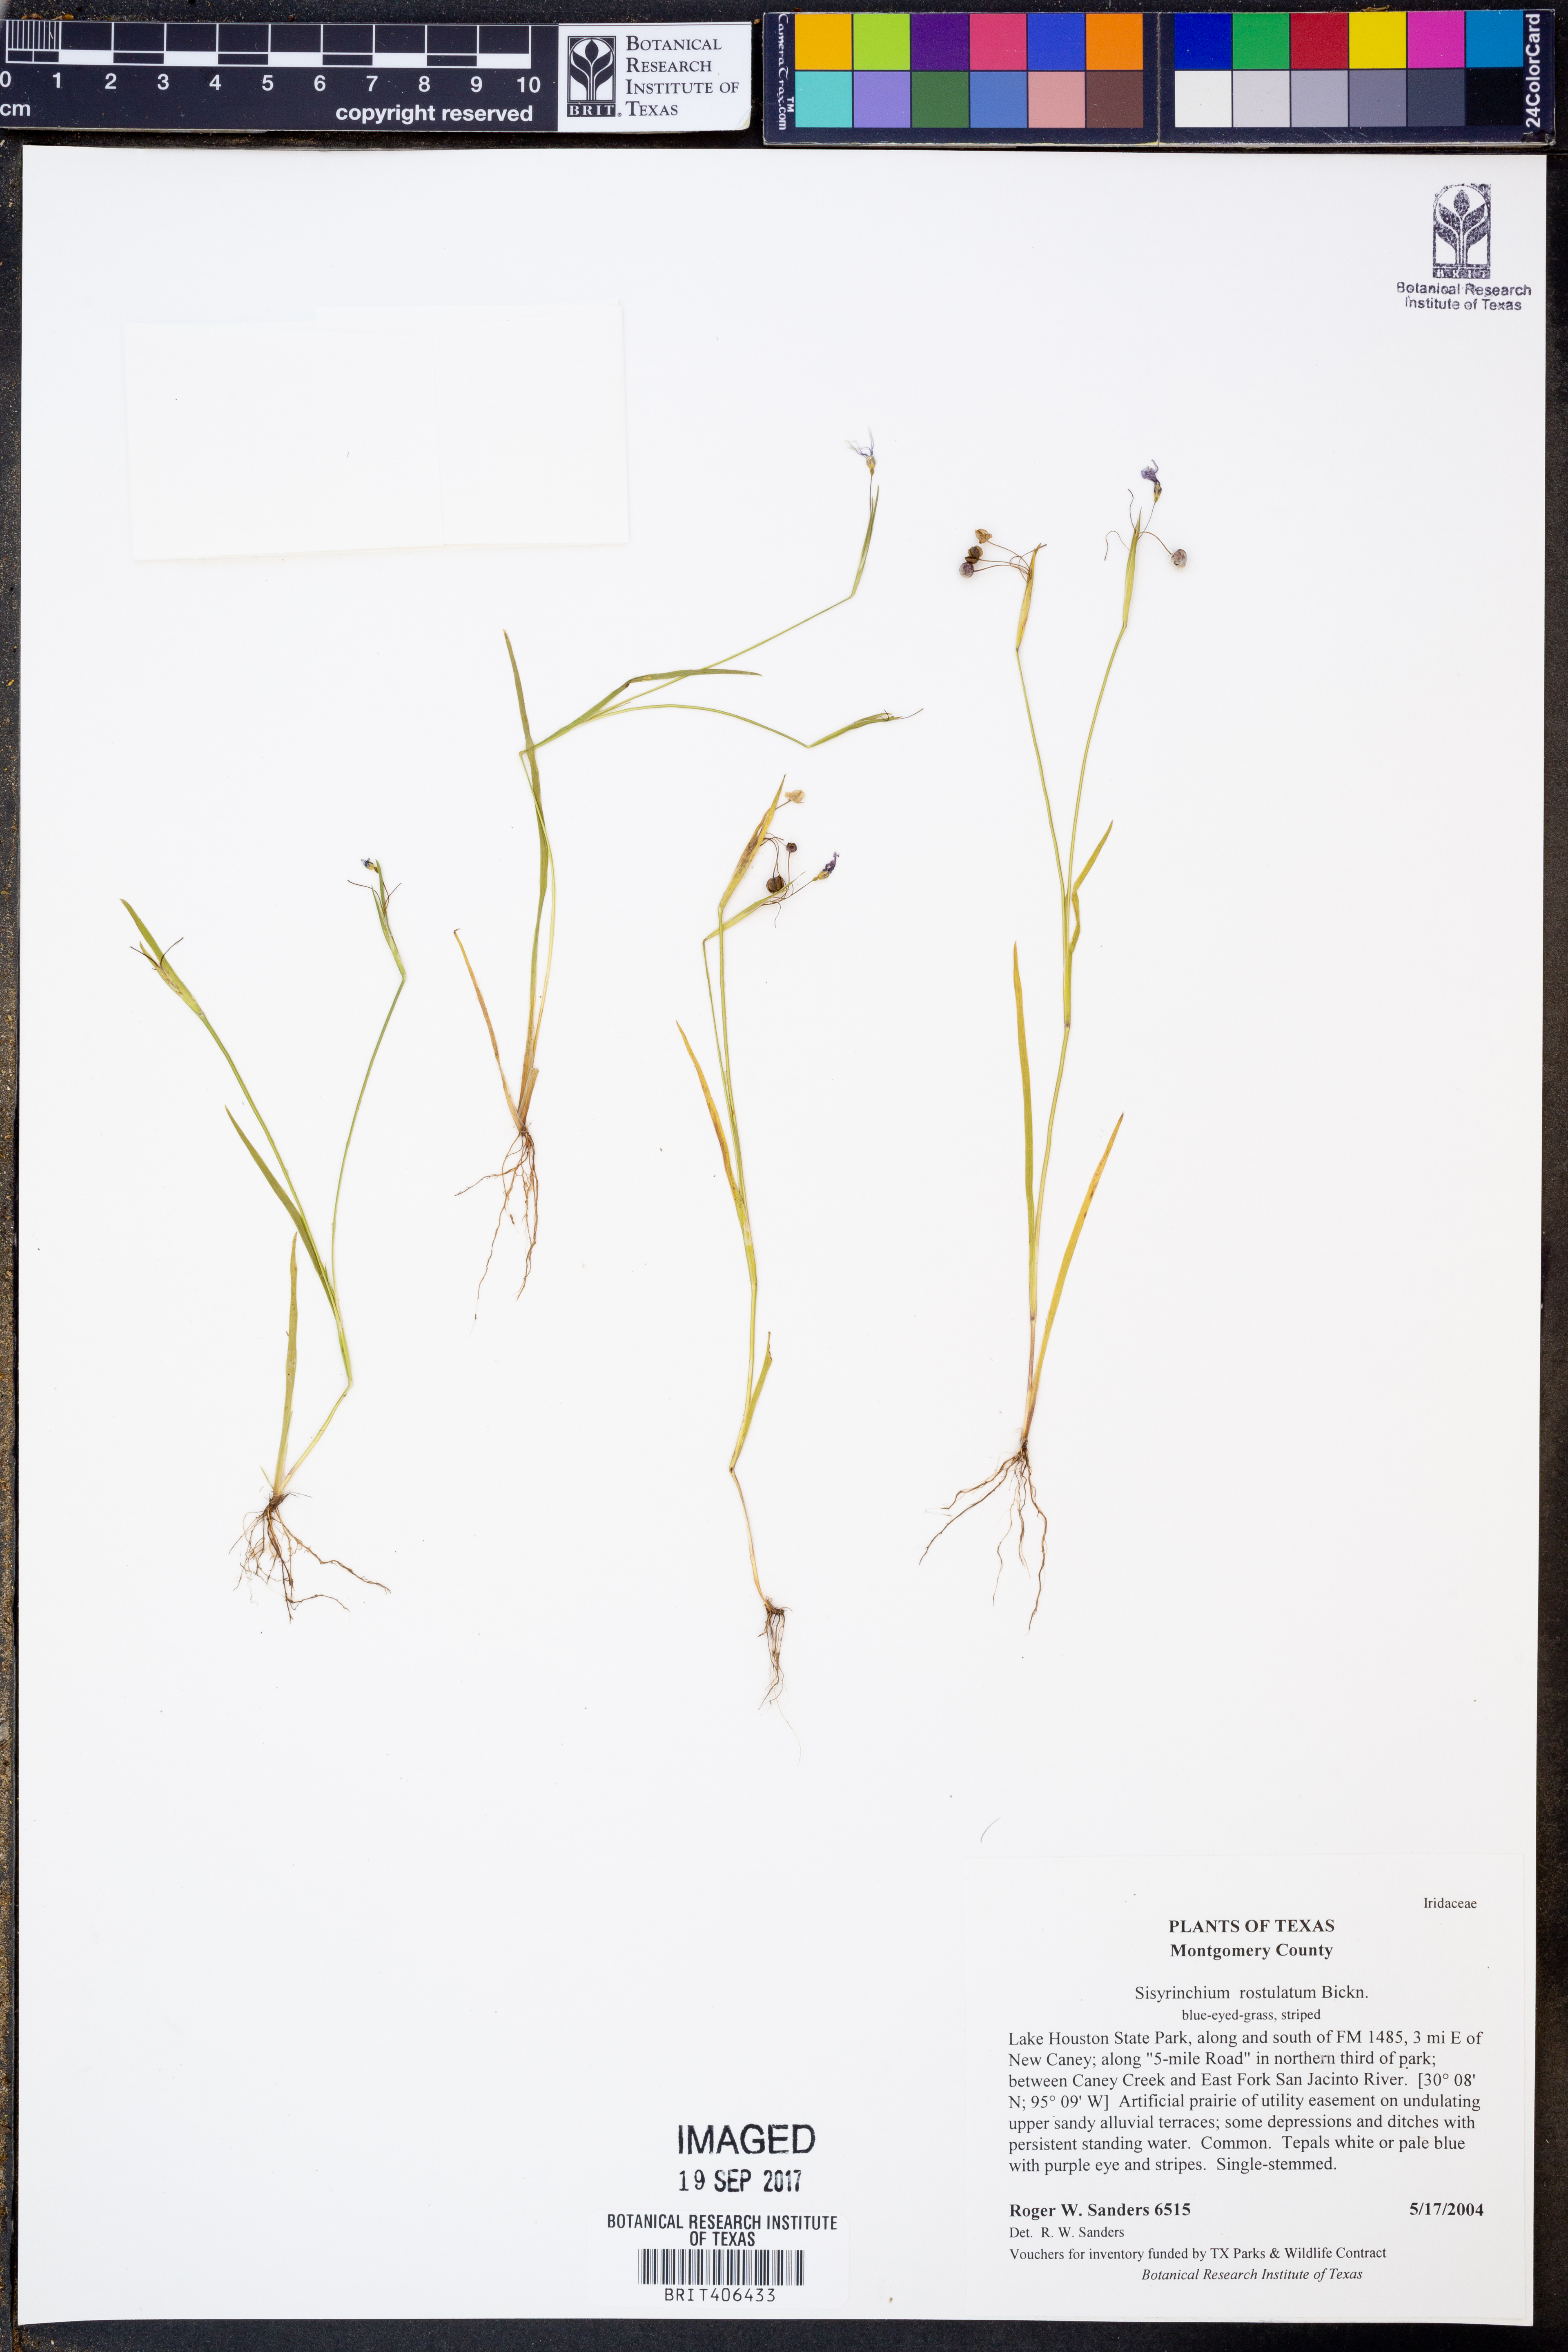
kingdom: Plantae
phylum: Tracheophyta
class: Liliopsida
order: Asparagales
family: Iridaceae
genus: Sisyrinchium
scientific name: Sisyrinchium rosulatum
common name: Annual blue-eyed grass
